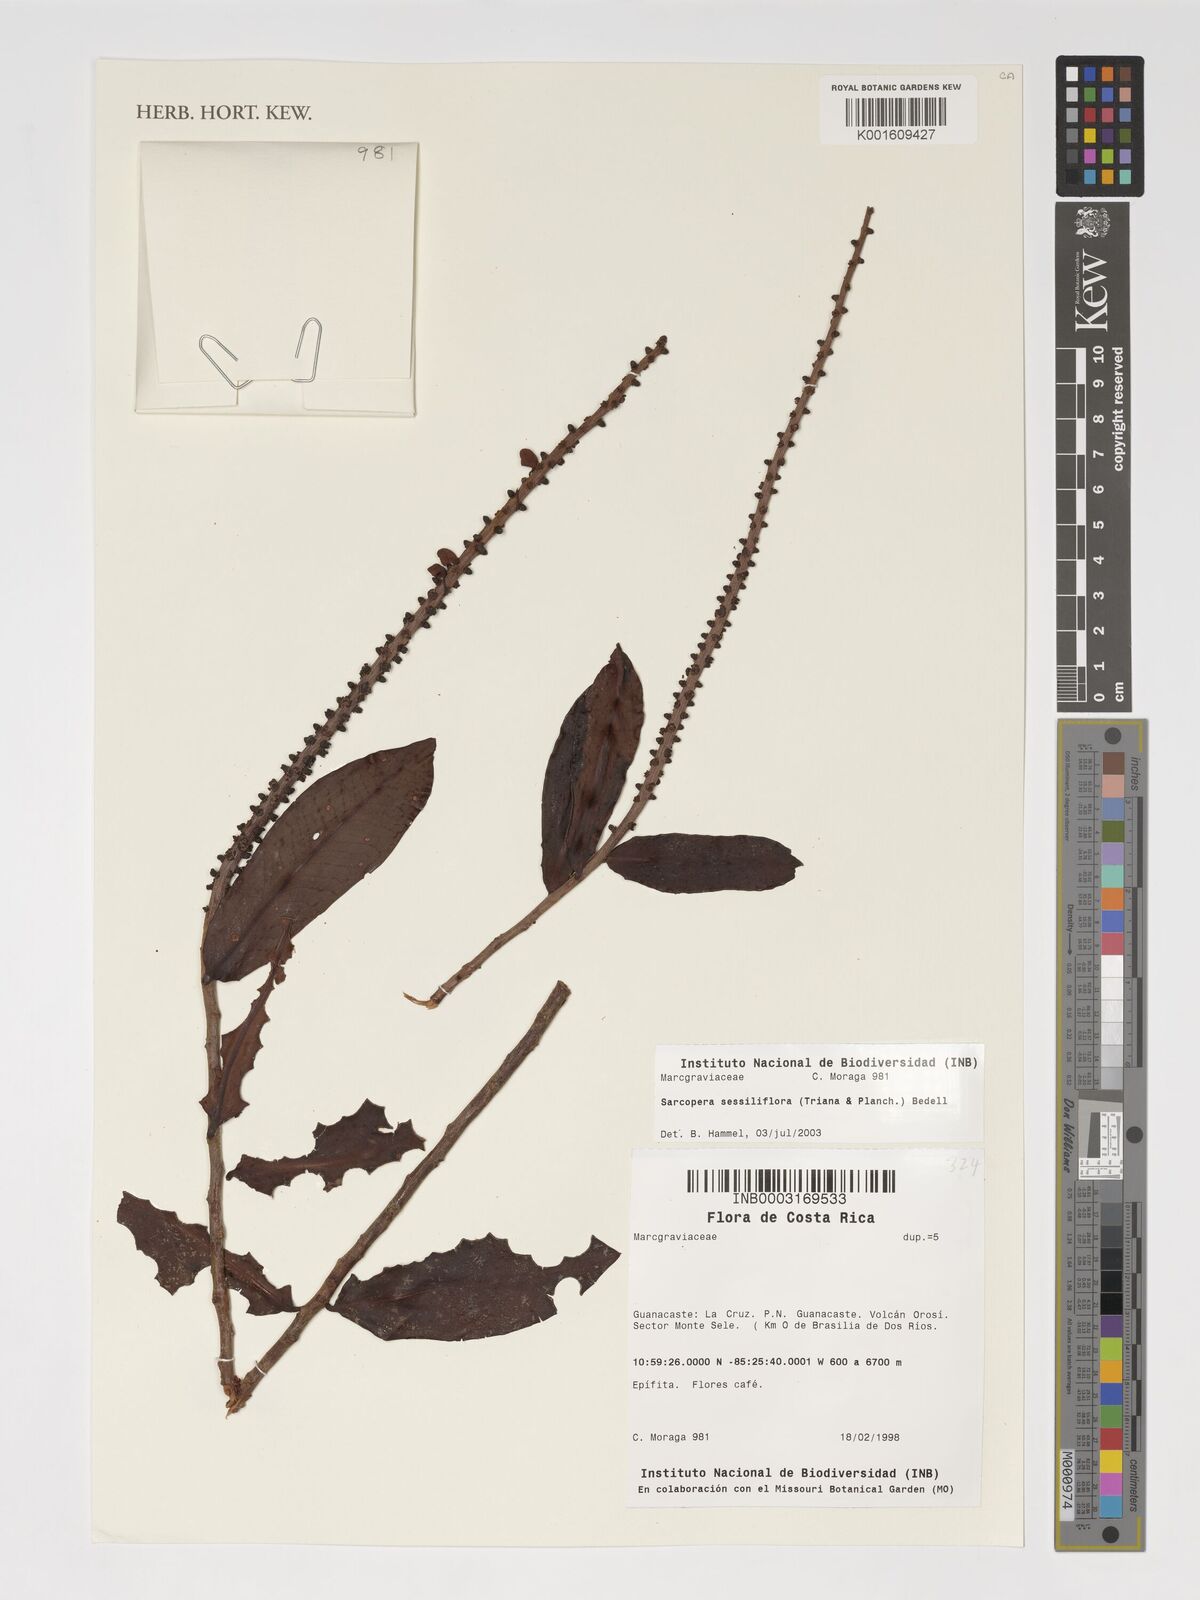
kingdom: Plantae
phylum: Tracheophyta
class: Magnoliopsida
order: Ericales
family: Marcgraviaceae
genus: Sarcopera
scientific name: Sarcopera sessiliflora
